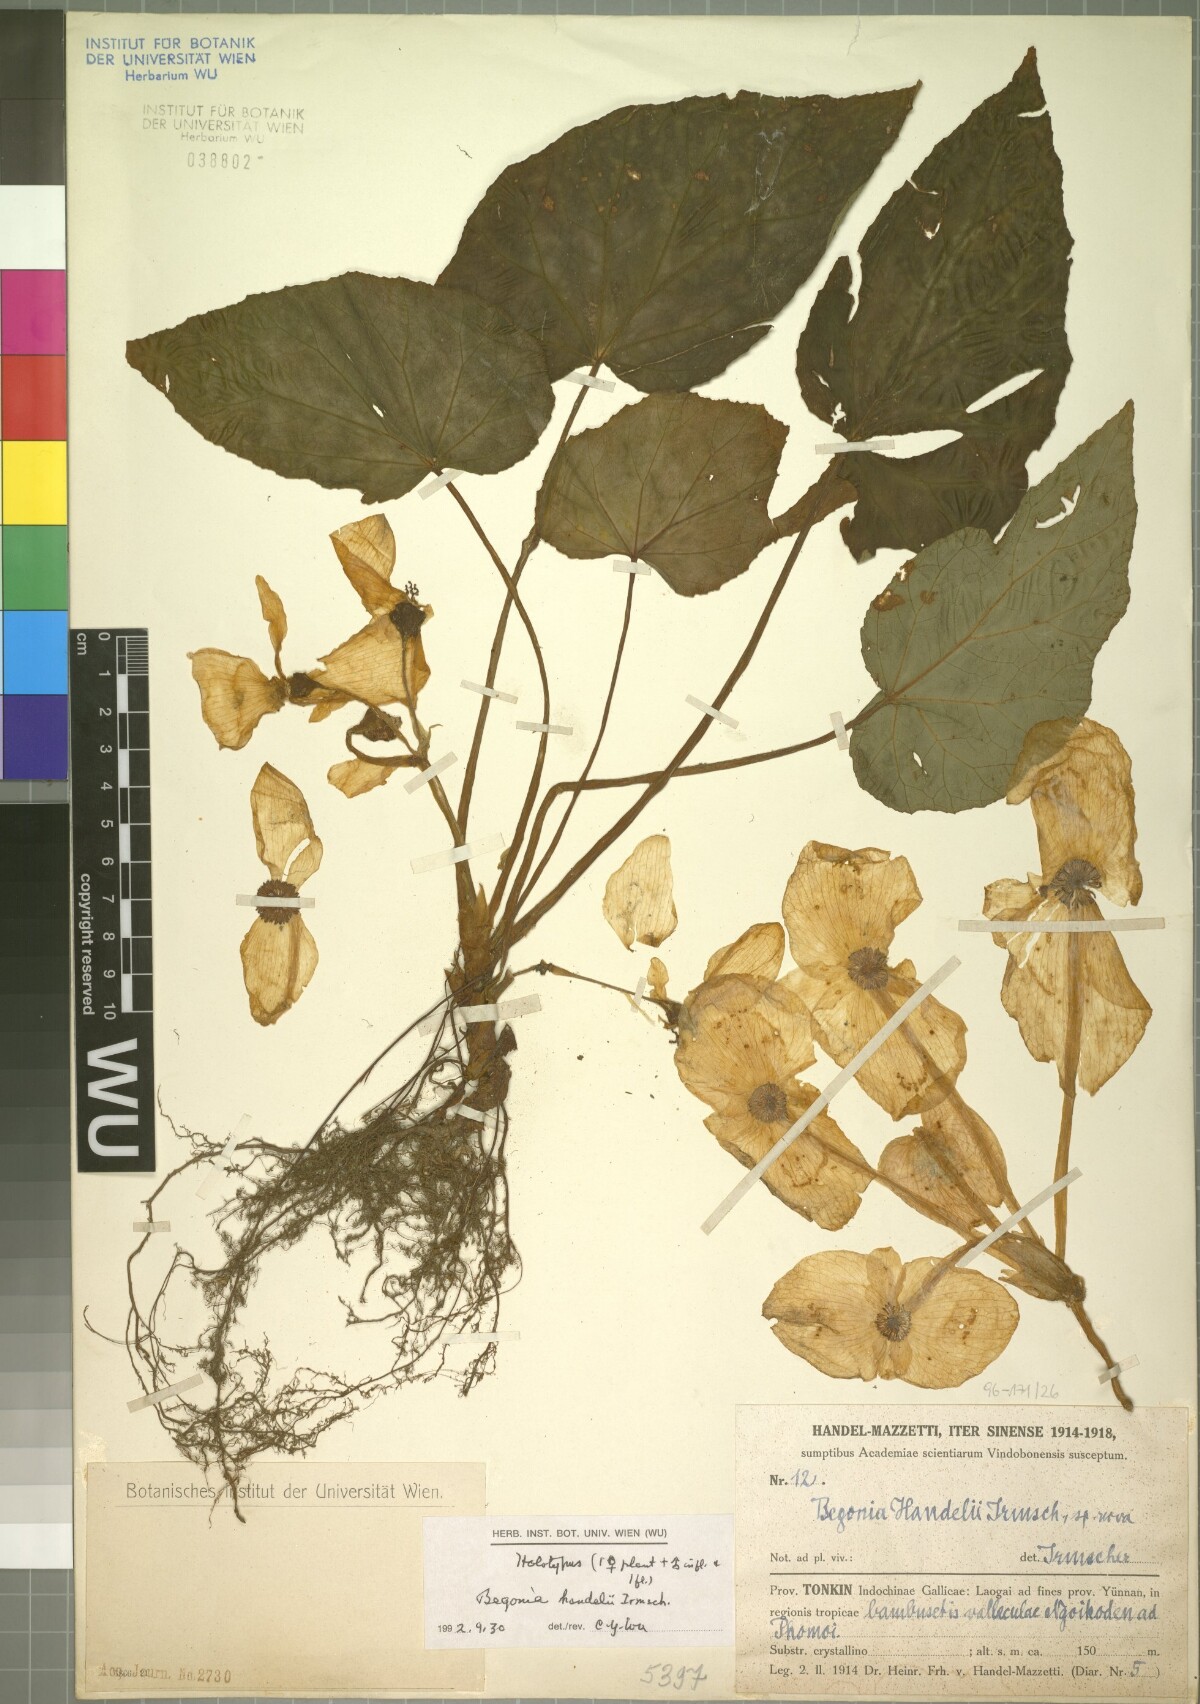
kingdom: Plantae
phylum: Tracheophyta
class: Magnoliopsida
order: Cucurbitales
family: Begoniaceae
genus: Begonia
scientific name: Begonia handelii
